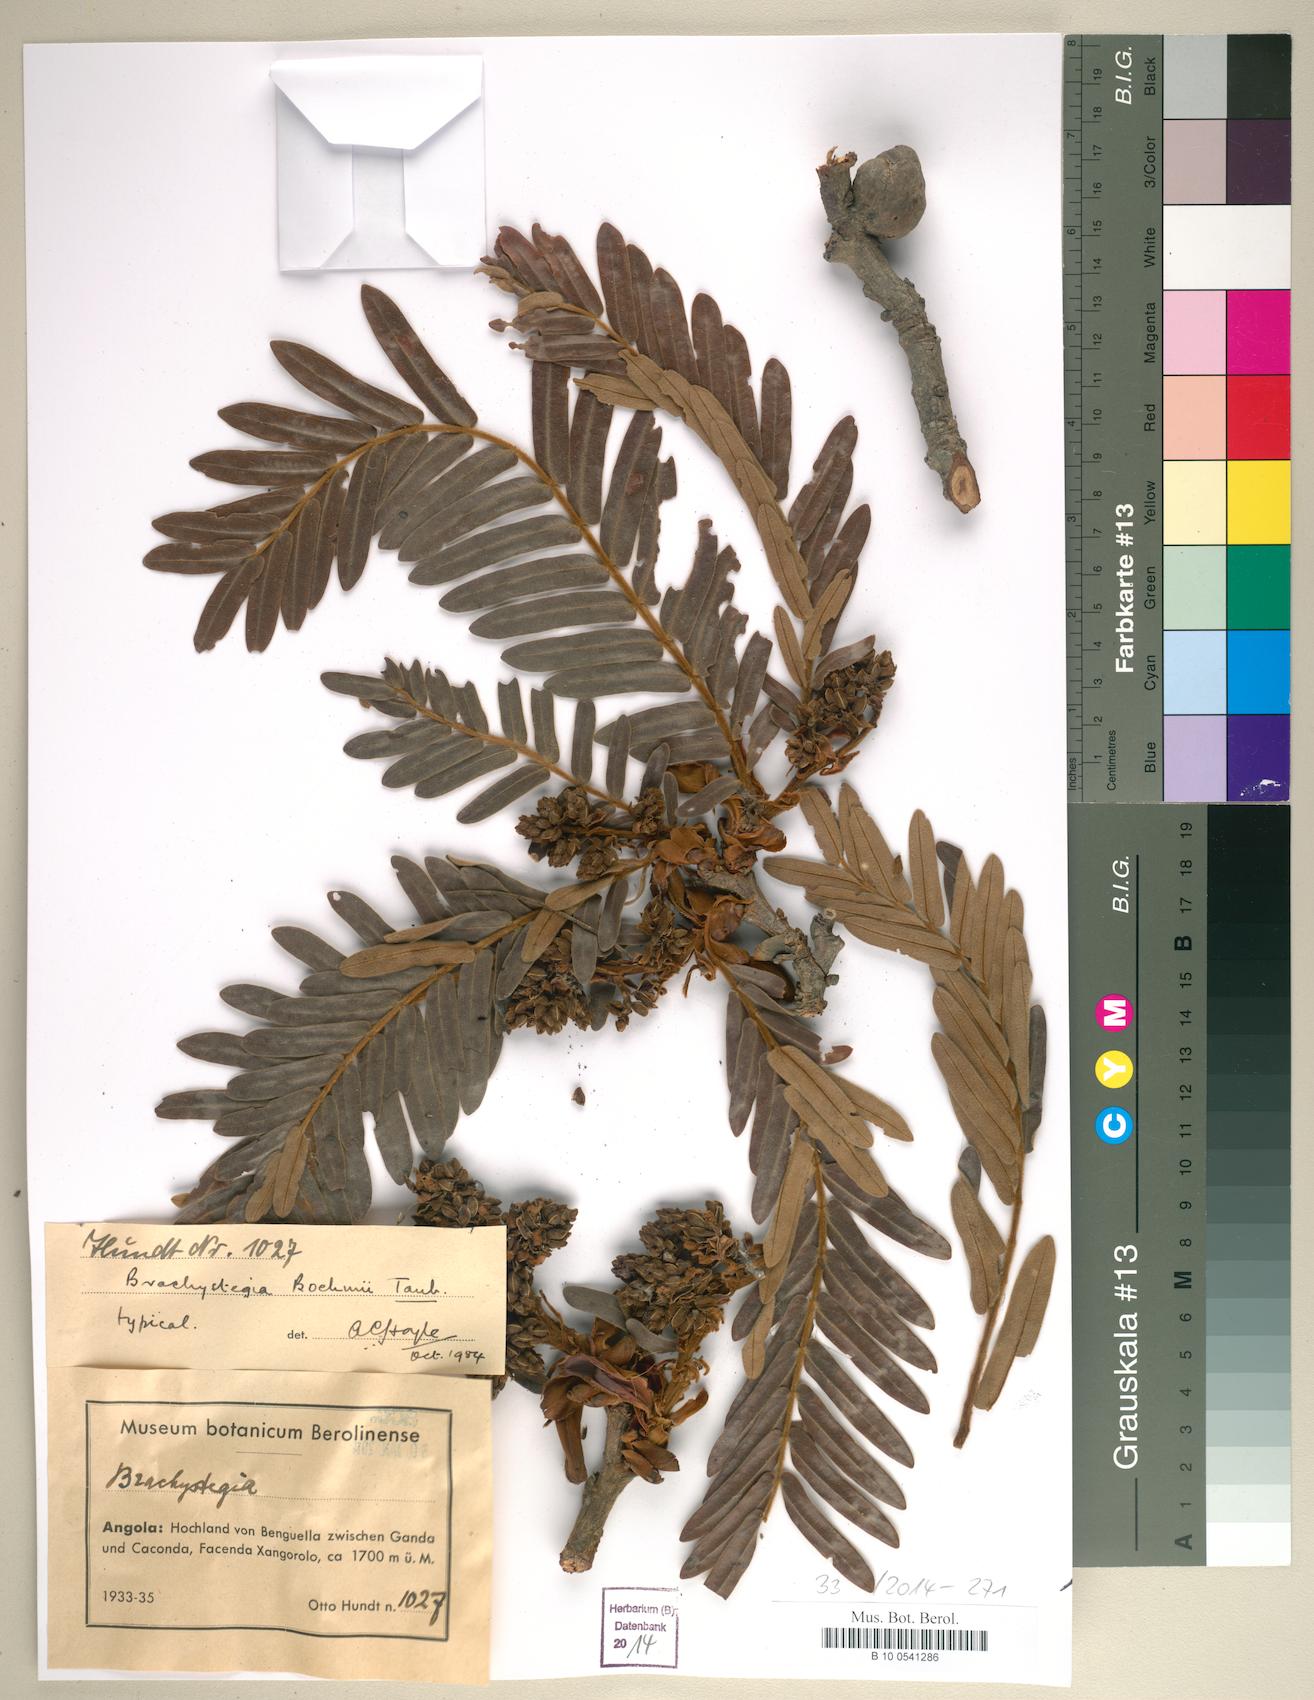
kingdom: Plantae
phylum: Tracheophyta
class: Magnoliopsida
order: Fabales
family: Fabaceae
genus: Brachystegia
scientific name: Brachystegia boehmii
